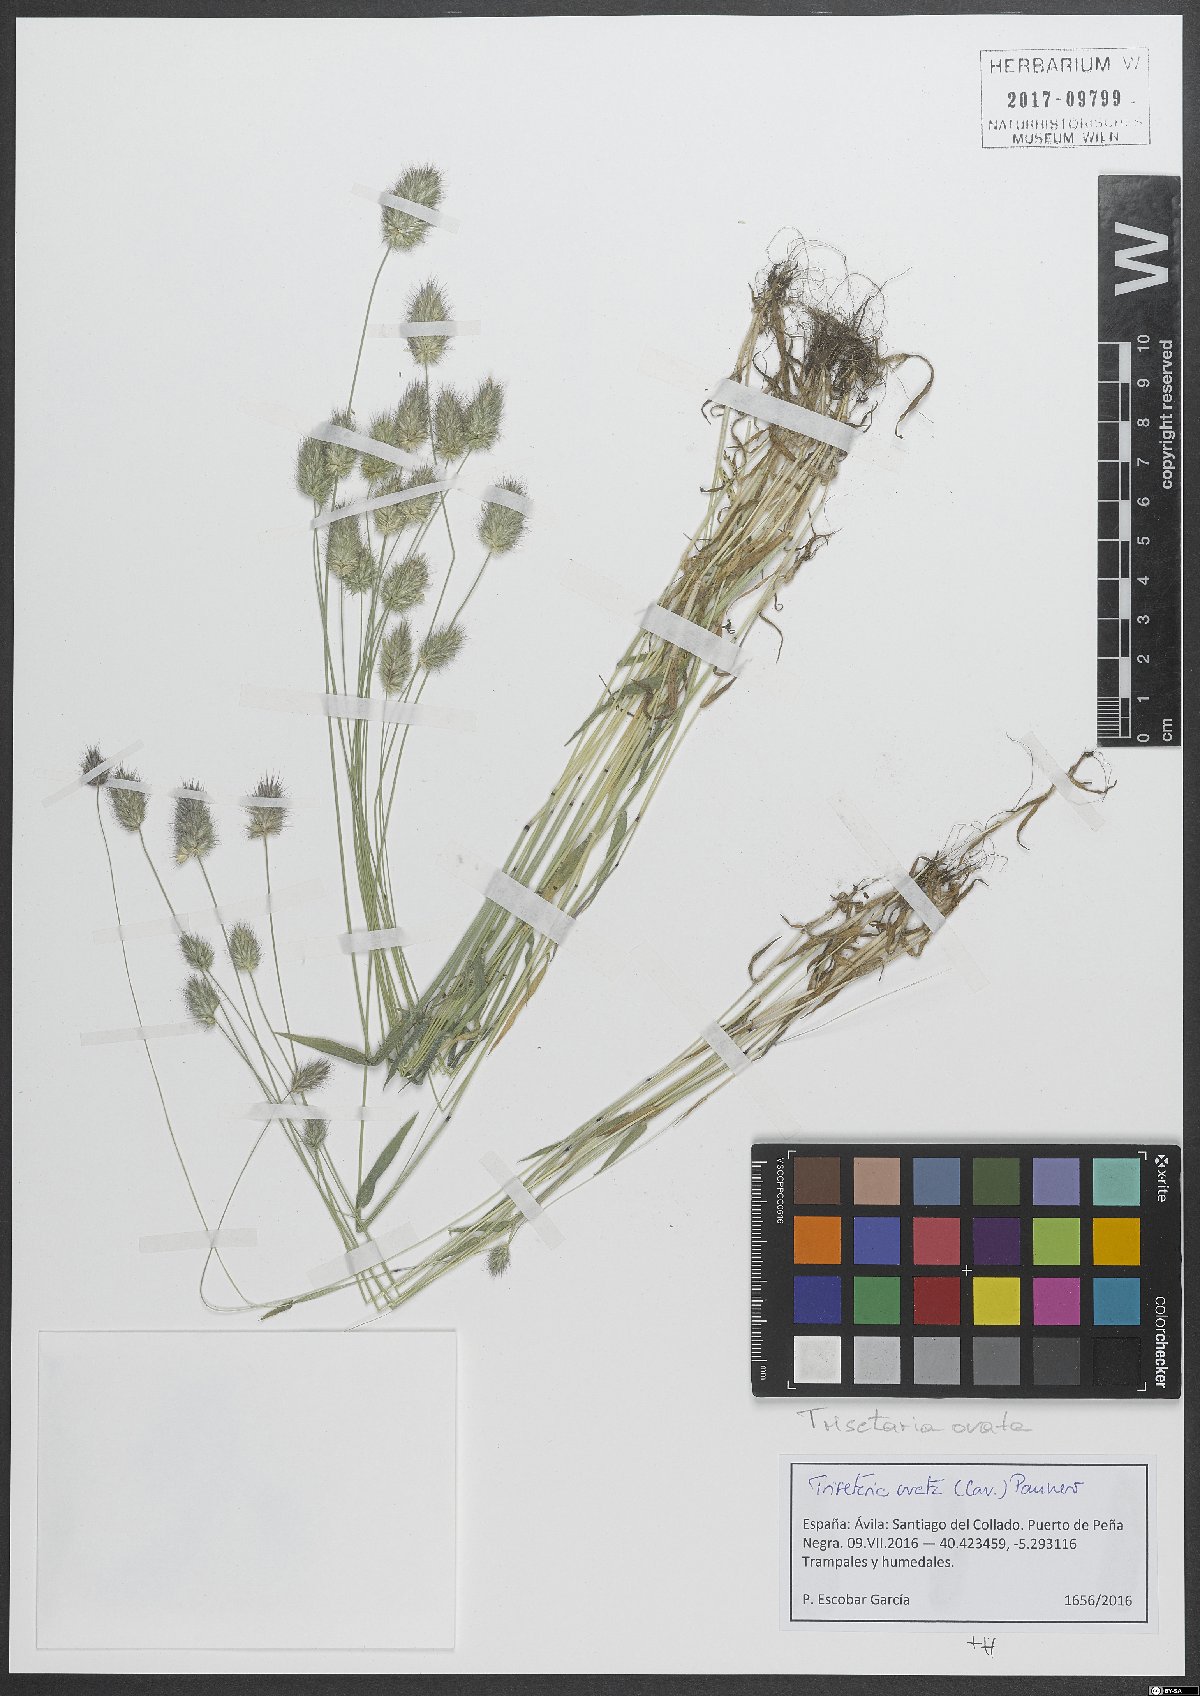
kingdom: Plantae
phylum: Tracheophyta
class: Liliopsida
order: Poales
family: Poaceae
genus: Trisetaria
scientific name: Trisetaria ovata
